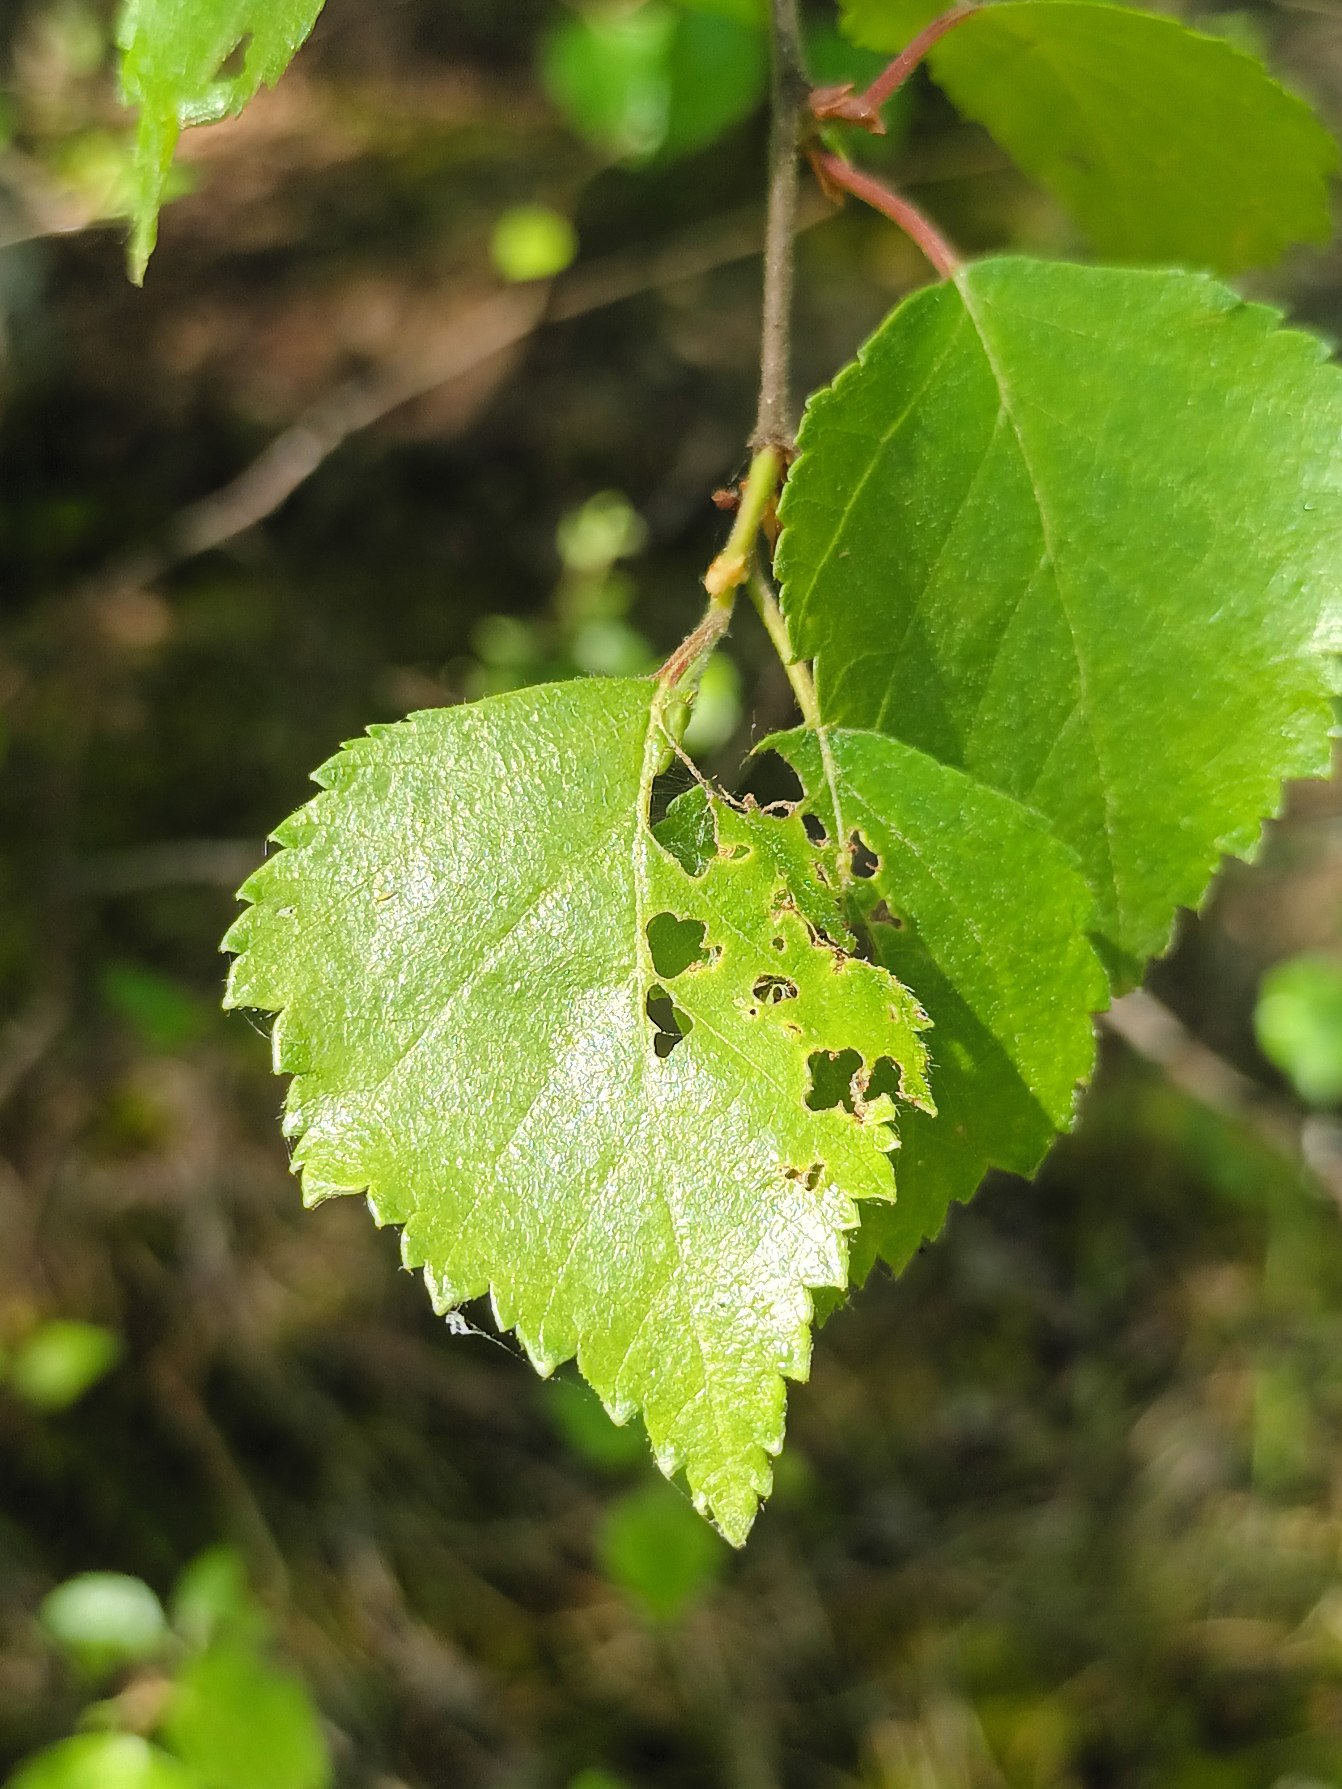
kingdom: Plantae
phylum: Tracheophyta
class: Magnoliopsida
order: Fagales
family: Betulaceae
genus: Betula
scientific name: Betula pendula
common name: Vorte-birk
